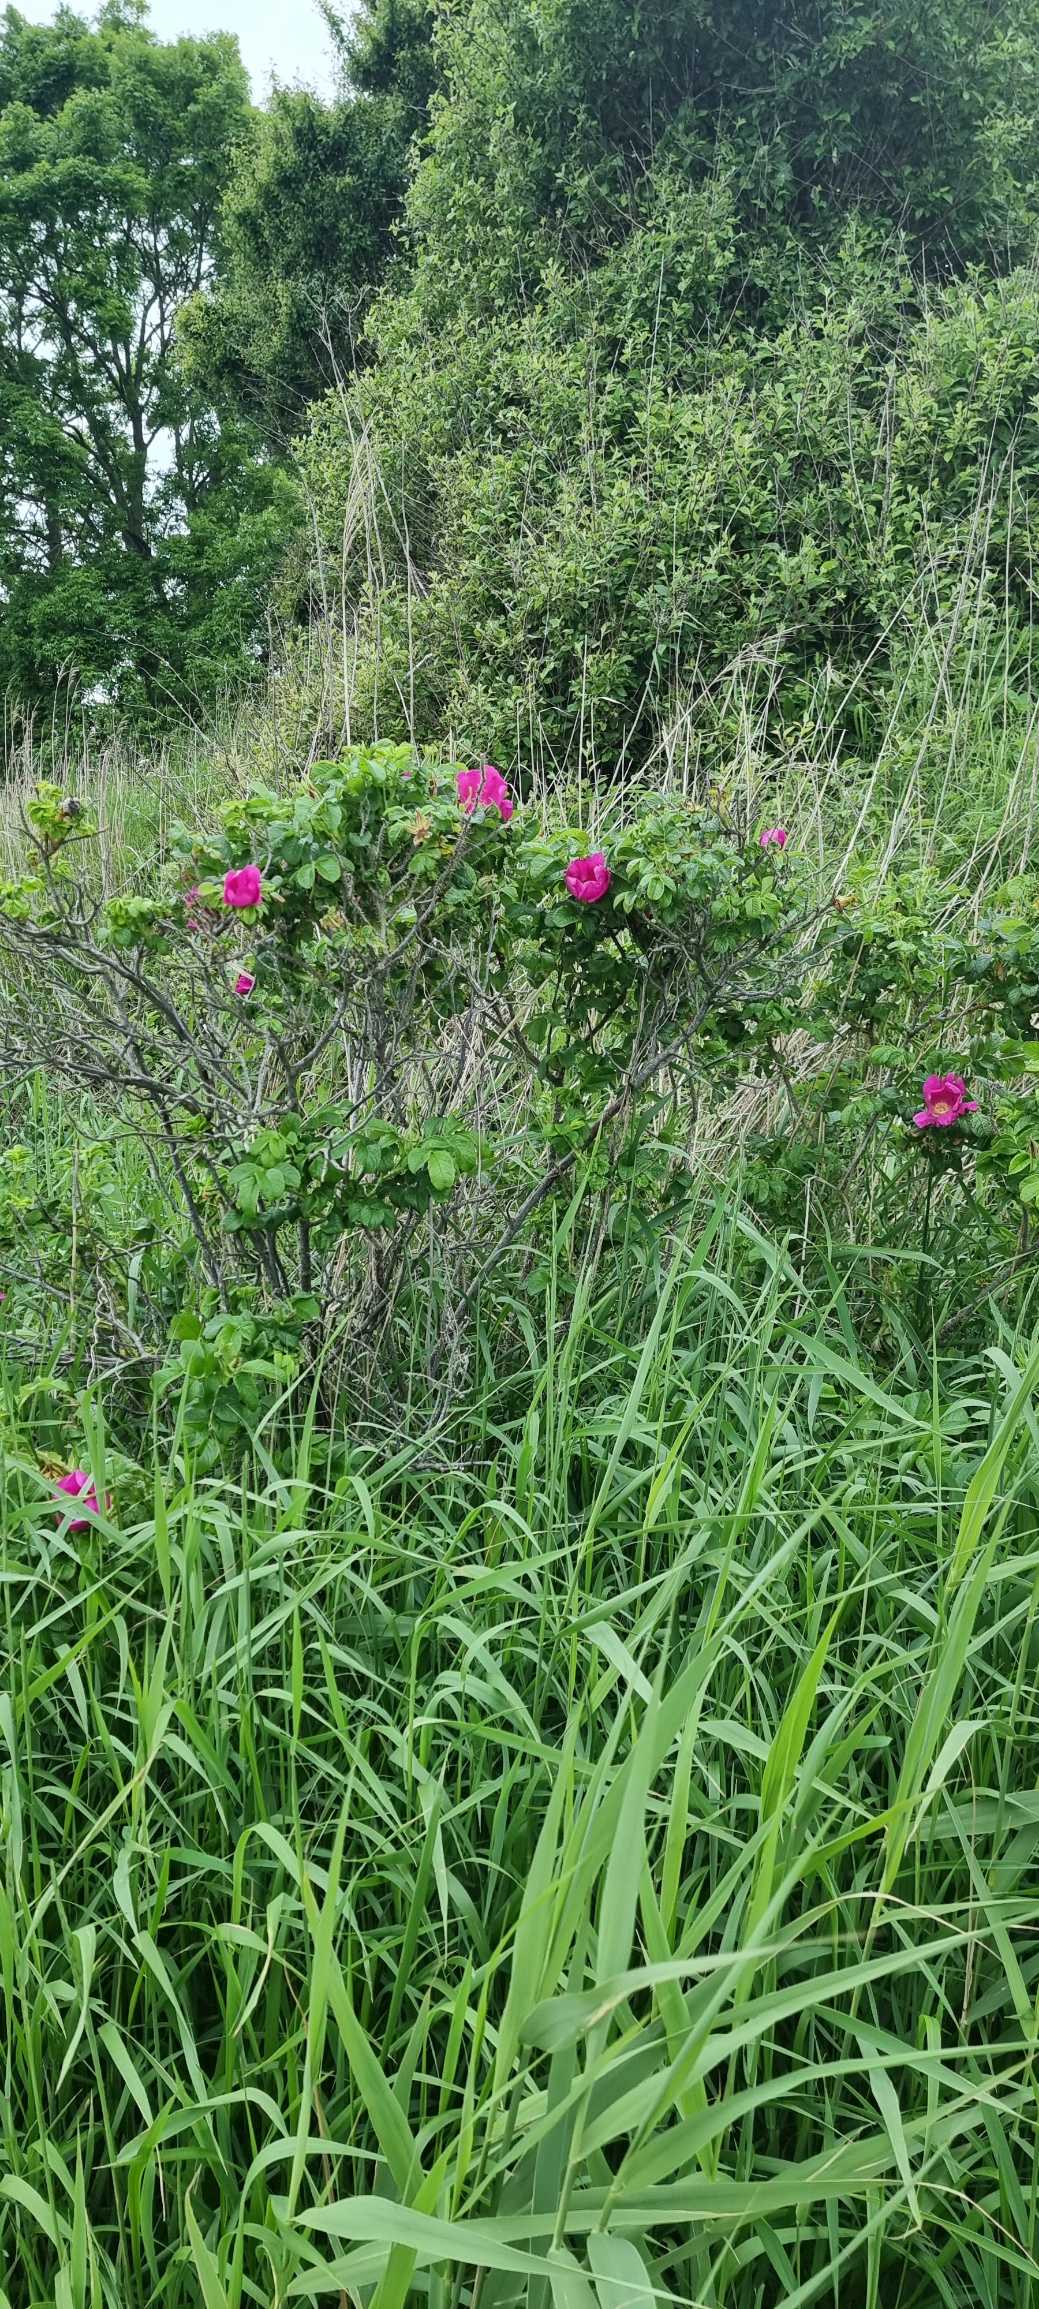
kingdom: Plantae
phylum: Tracheophyta
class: Magnoliopsida
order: Rosales
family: Rosaceae
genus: Rosa
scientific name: Rosa rugosa
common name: Rynket rose
